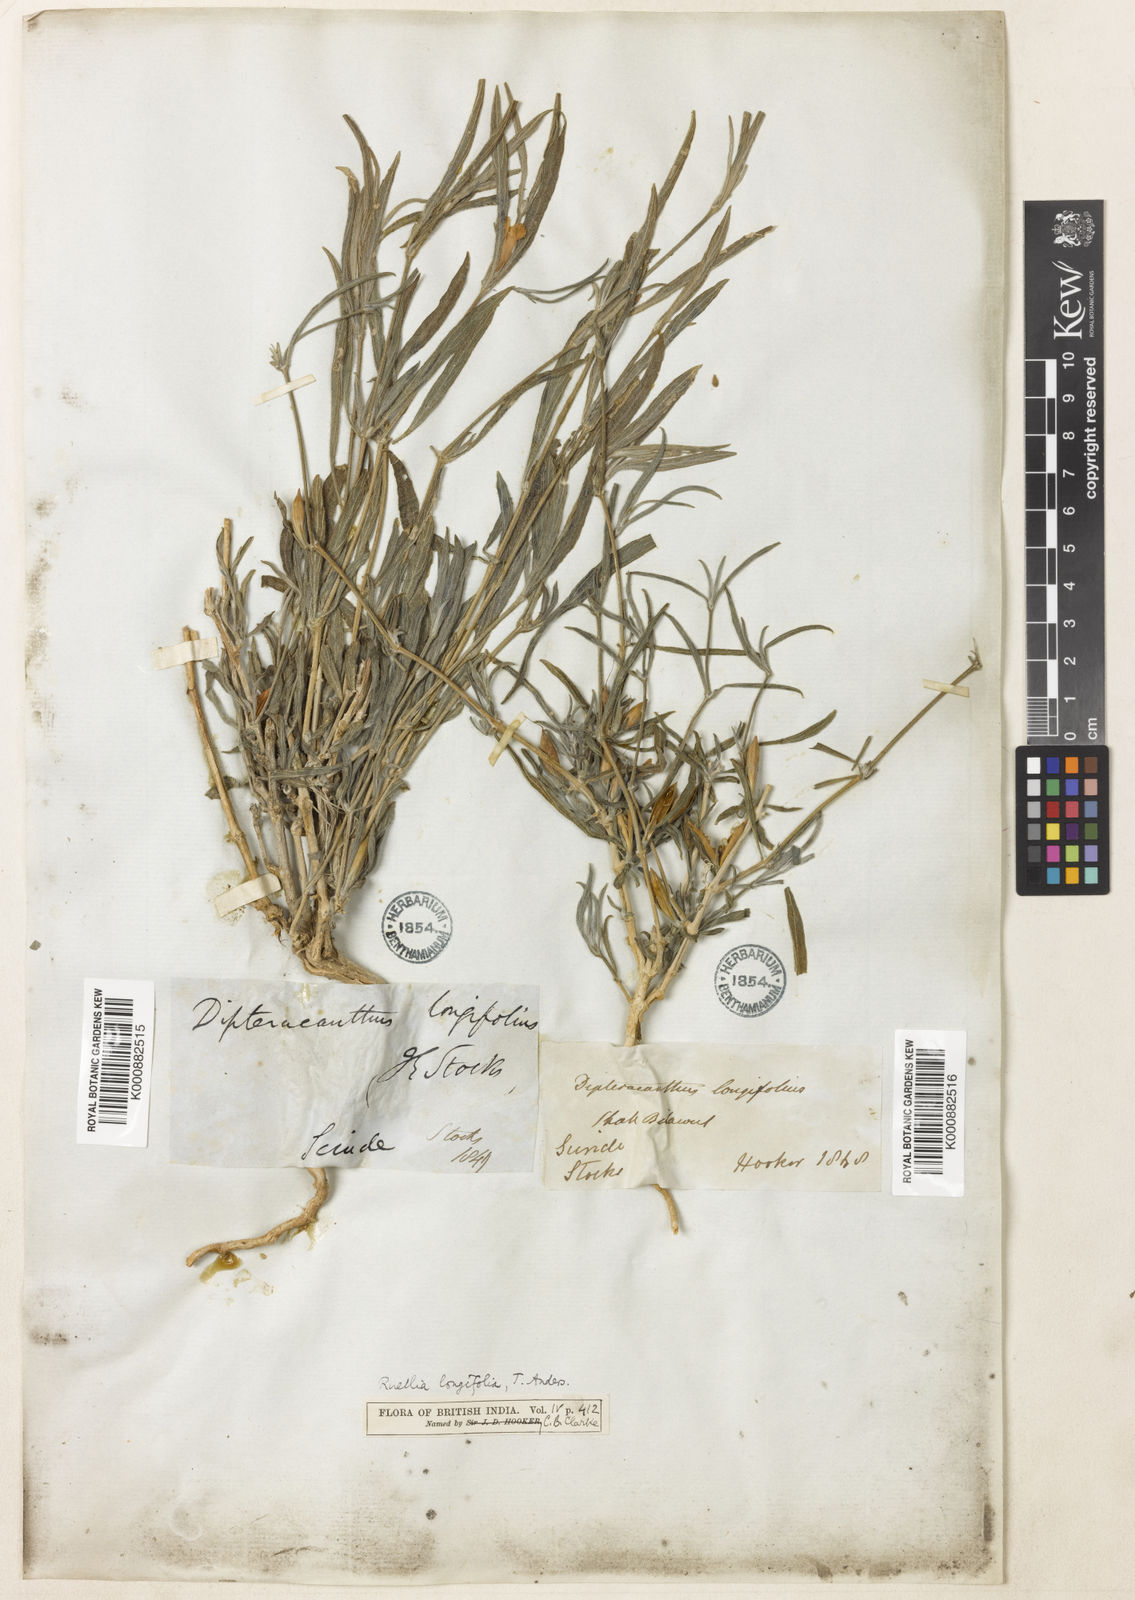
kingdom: Plantae
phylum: Tracheophyta
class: Magnoliopsida
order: Lamiales
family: Acanthaceae
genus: Ruellia
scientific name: Ruellia
